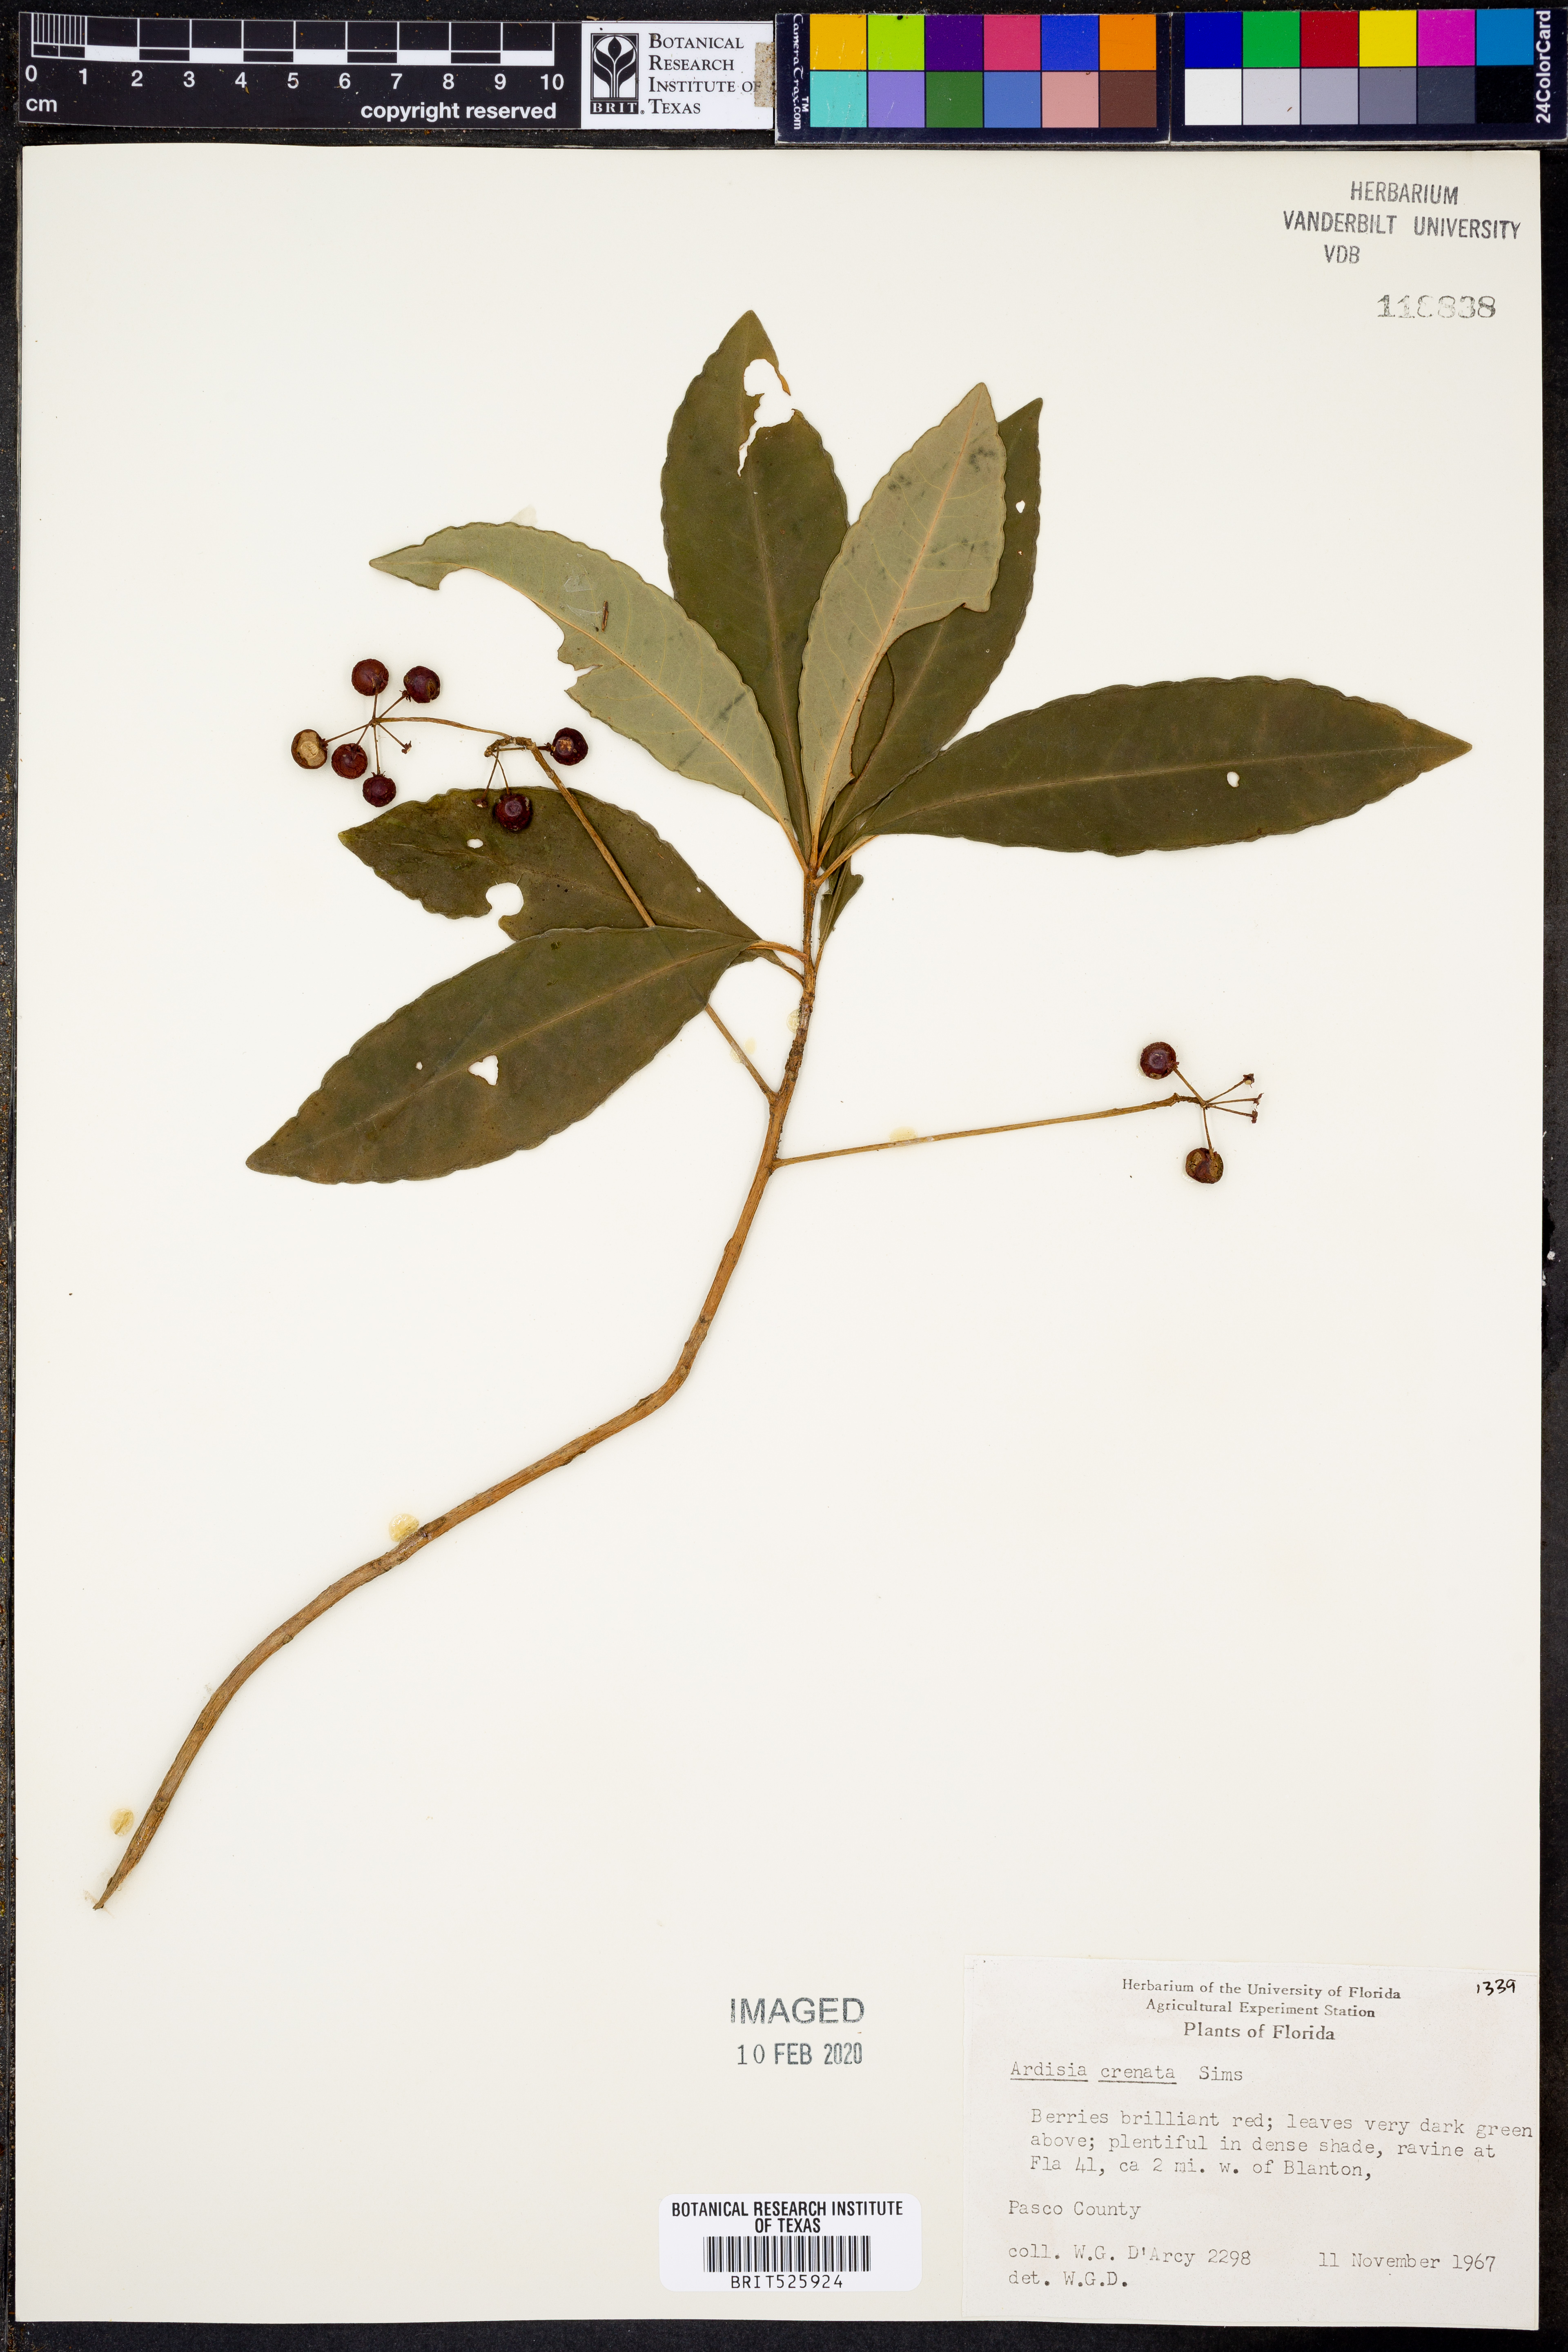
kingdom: Plantae
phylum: Tracheophyta
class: Magnoliopsida
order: Ericales
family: Primulaceae
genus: Ardisia
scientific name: Ardisia crenata
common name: Hen's eyes
